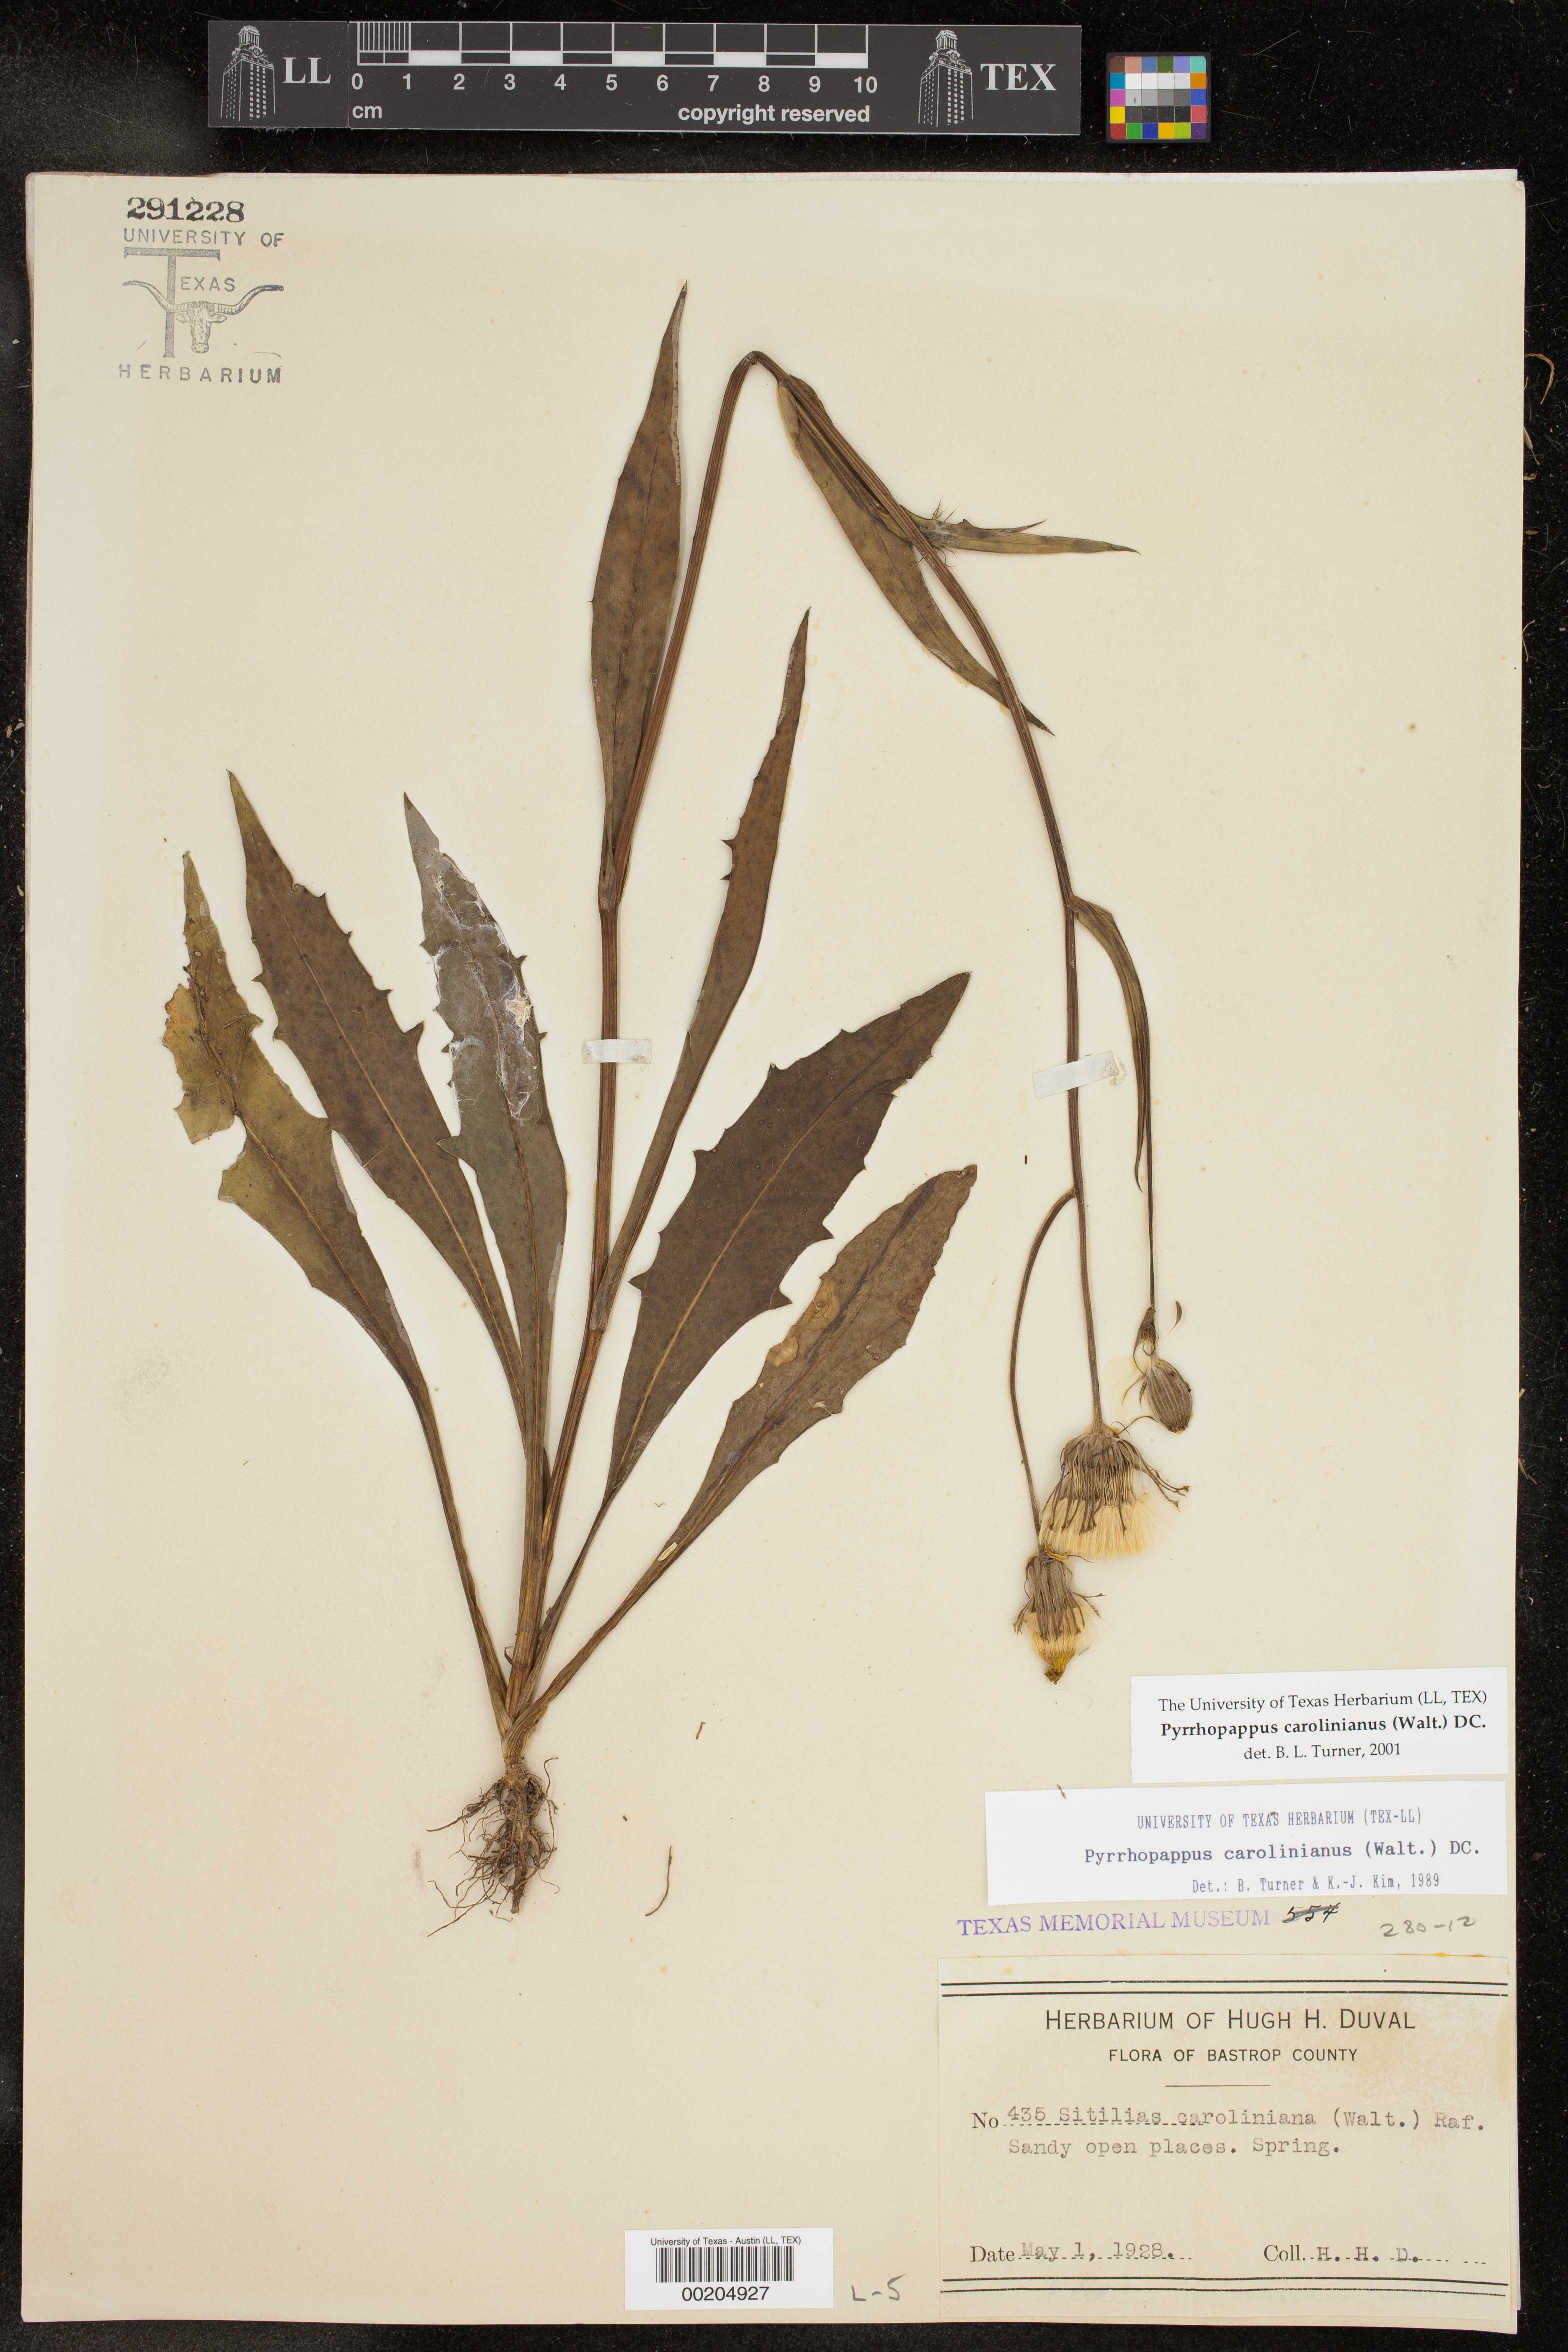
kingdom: Plantae
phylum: Tracheophyta
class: Magnoliopsida
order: Asterales
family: Asteraceae
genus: Pyrrhopappus
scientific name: Pyrrhopappus carolinianus
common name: Carolina desert-chicory
